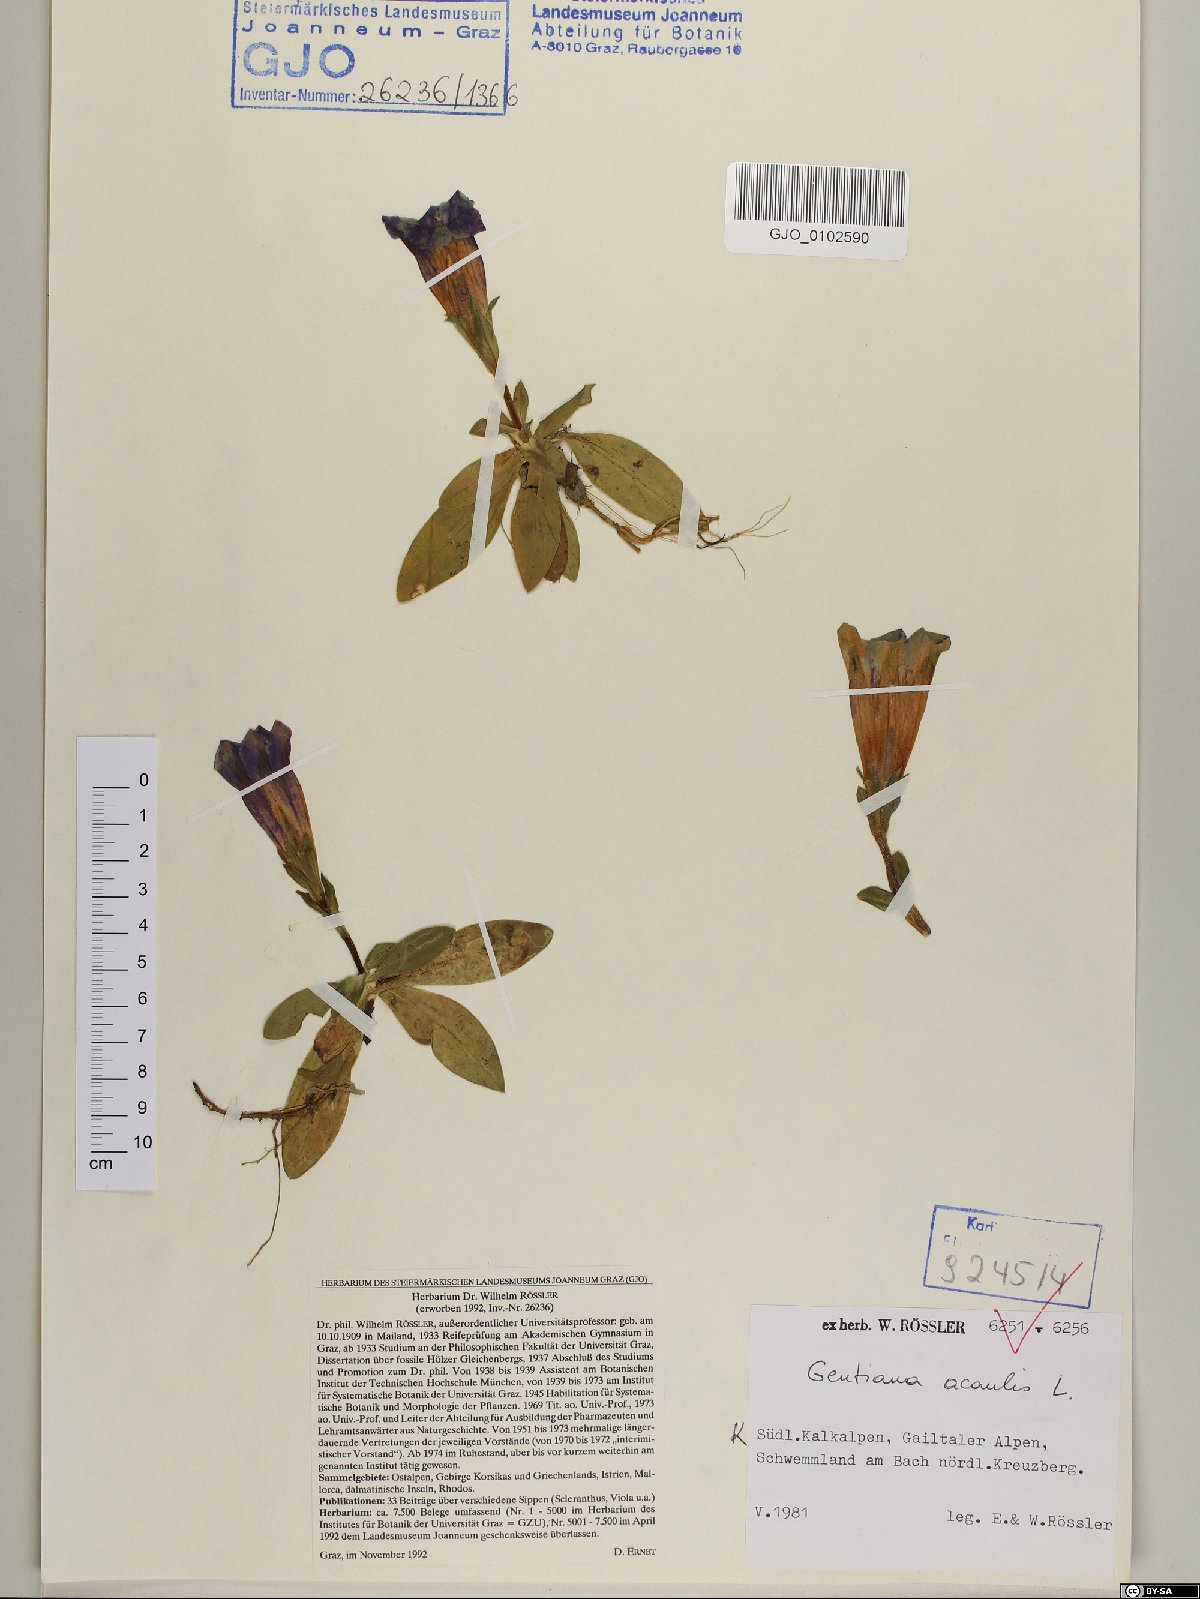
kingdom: Plantae
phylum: Tracheophyta
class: Magnoliopsida
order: Gentianales
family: Gentianaceae
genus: Gentiana
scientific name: Gentiana acaulis
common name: Trumpet gentian
